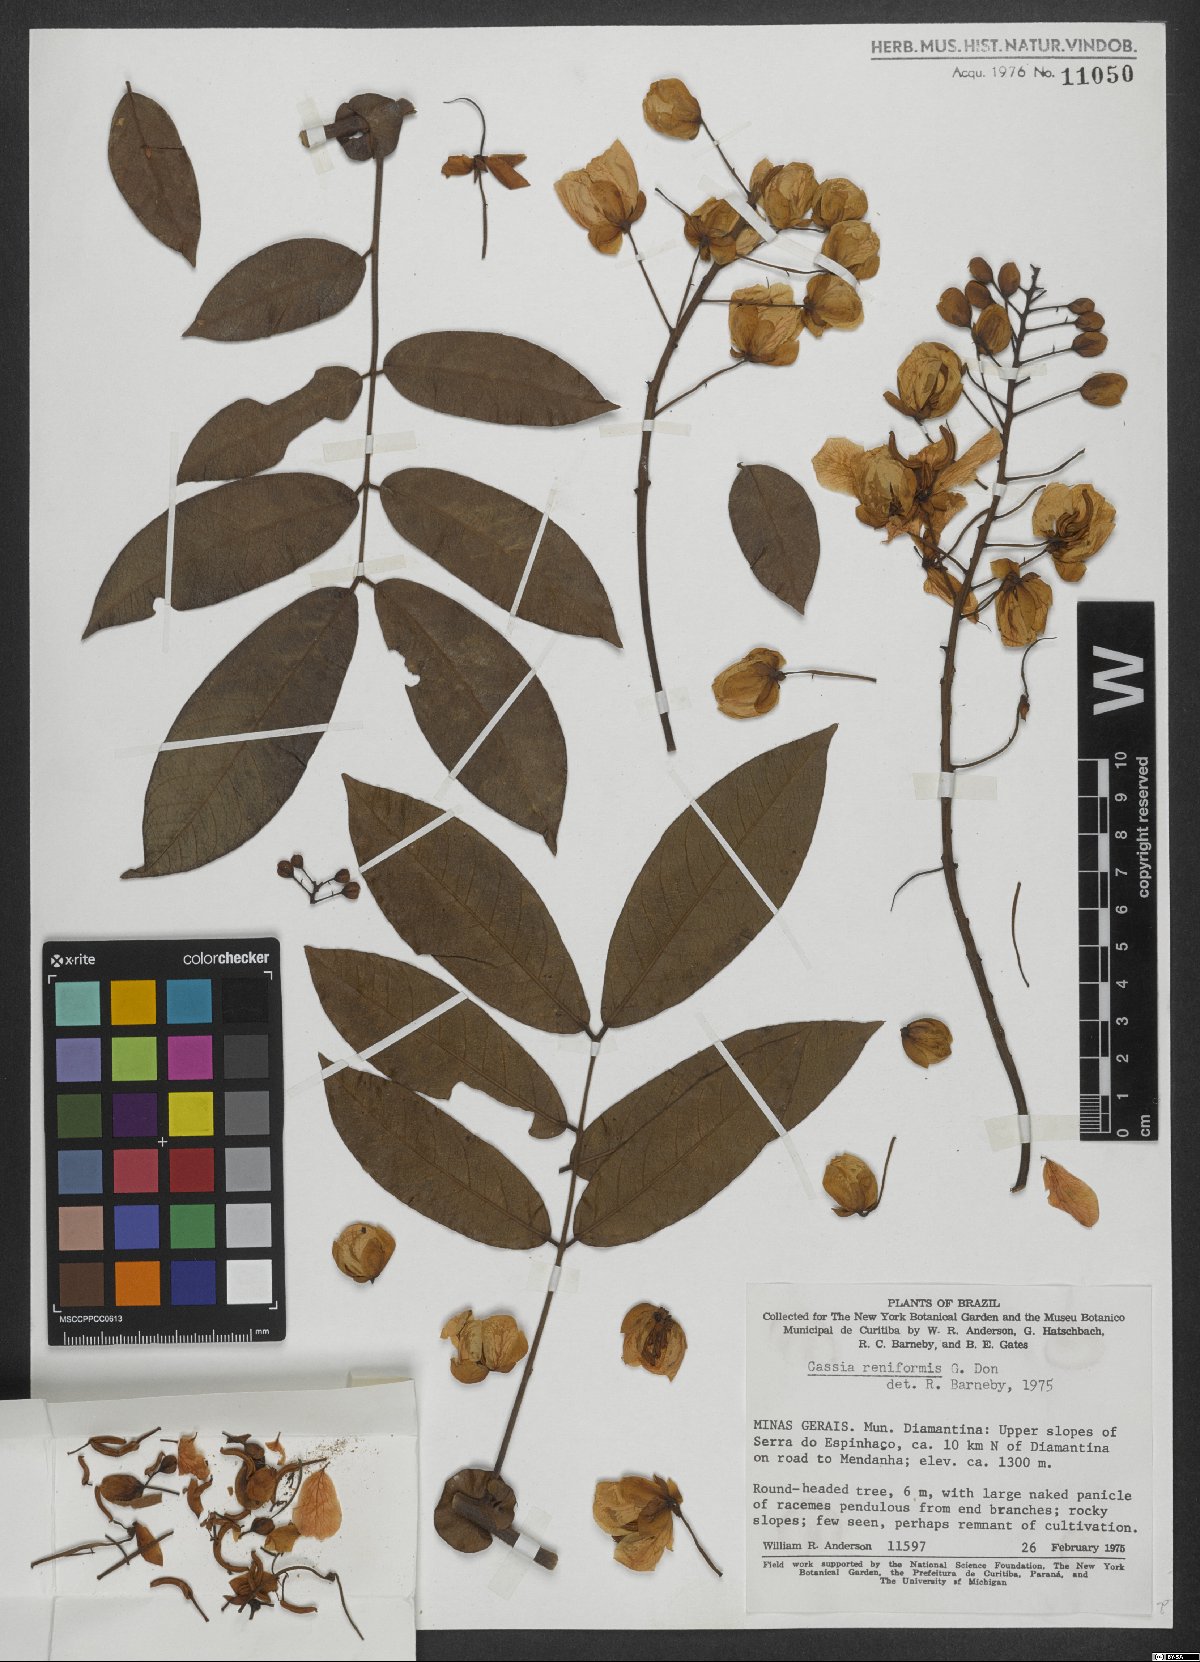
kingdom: Plantae
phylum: Tracheophyta
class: Magnoliopsida
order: Fabales
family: Fabaceae
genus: Senna
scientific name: Senna reniformis
